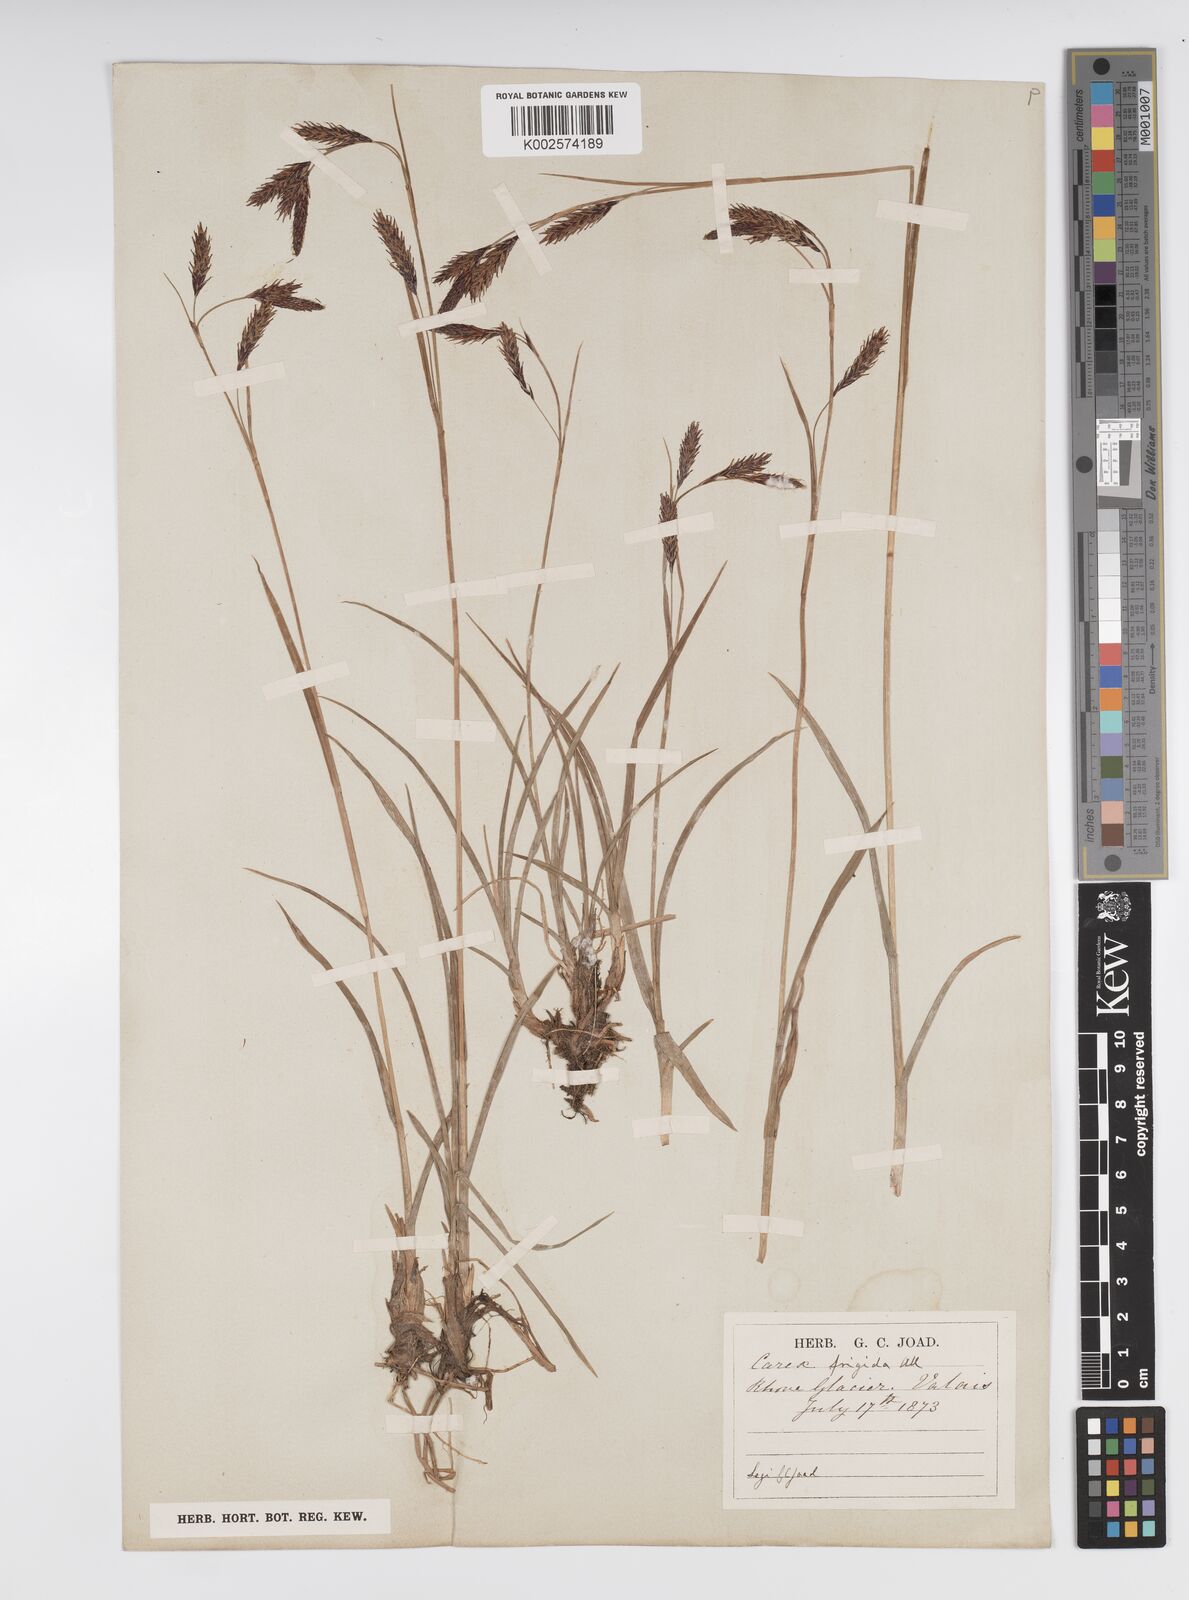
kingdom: Plantae
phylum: Tracheophyta
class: Liliopsida
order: Poales
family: Cyperaceae
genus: Carex
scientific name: Carex frigida
